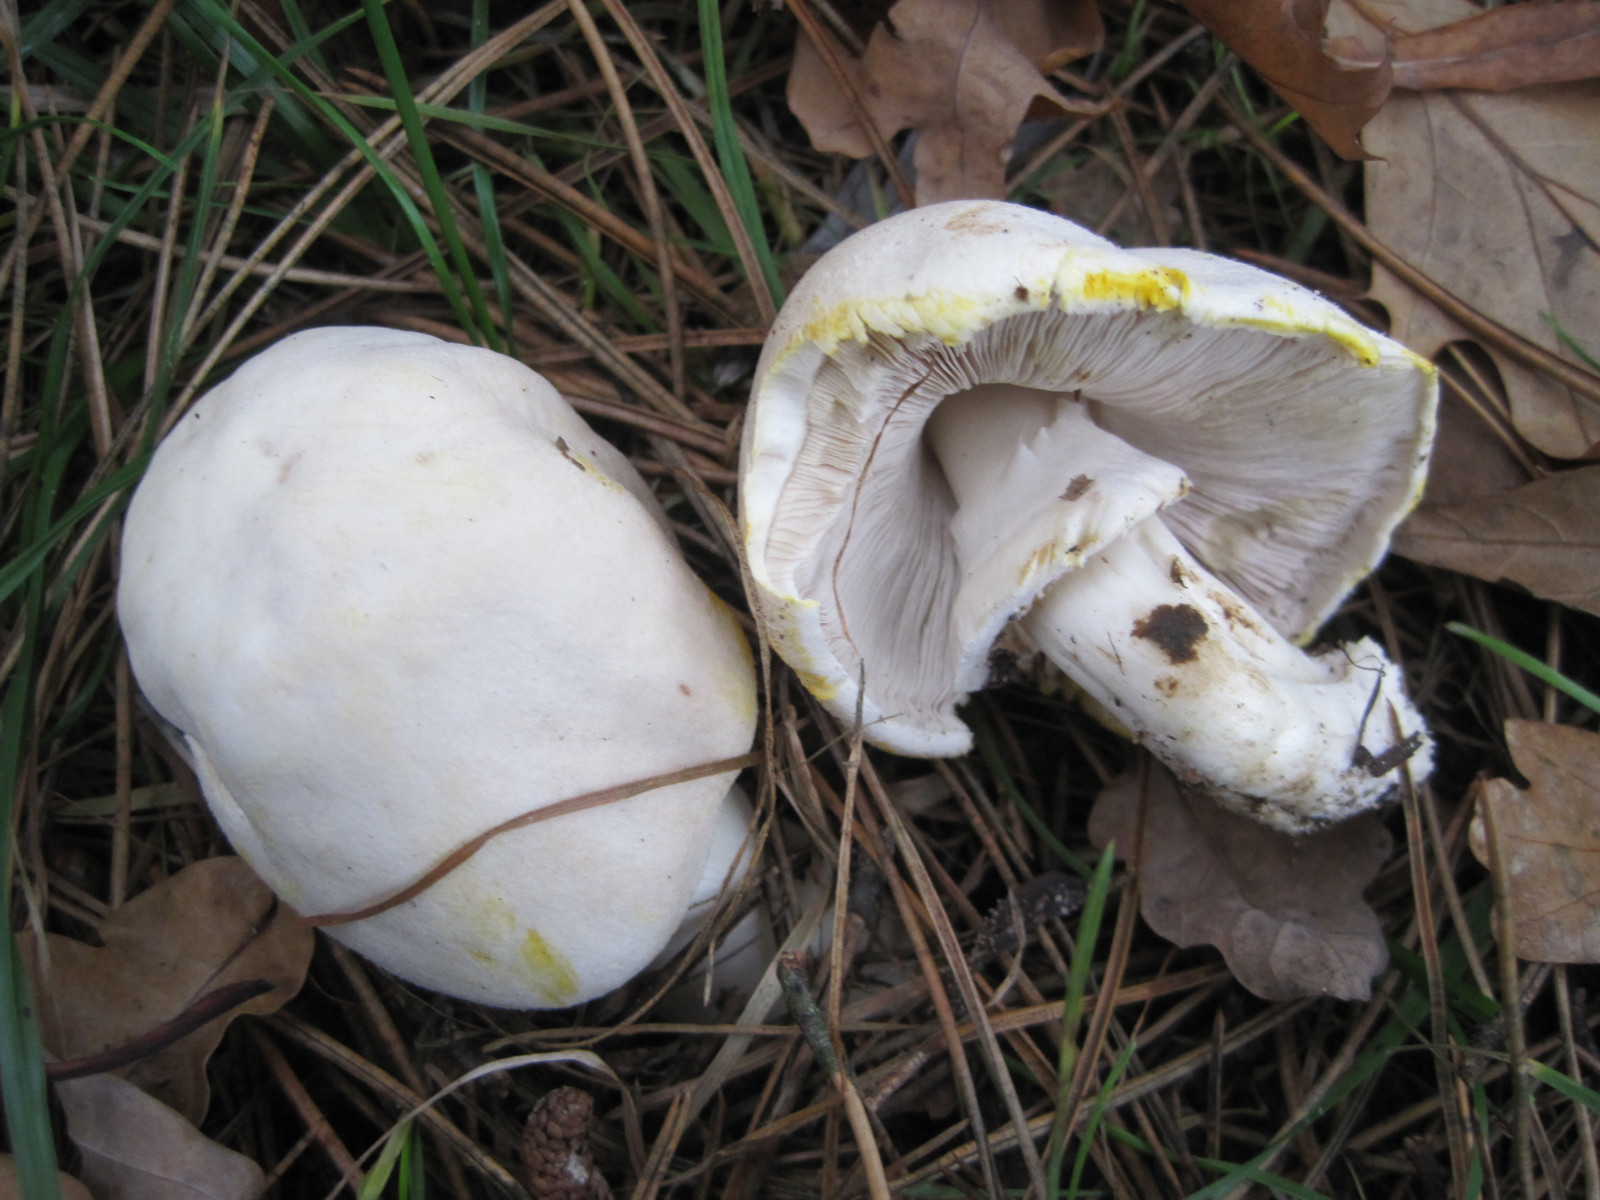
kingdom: Fungi
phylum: Basidiomycota
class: Agaricomycetes
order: Agaricales
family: Agaricaceae
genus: Agaricus
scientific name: Agaricus xanthodermus
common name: karbol-champignon
